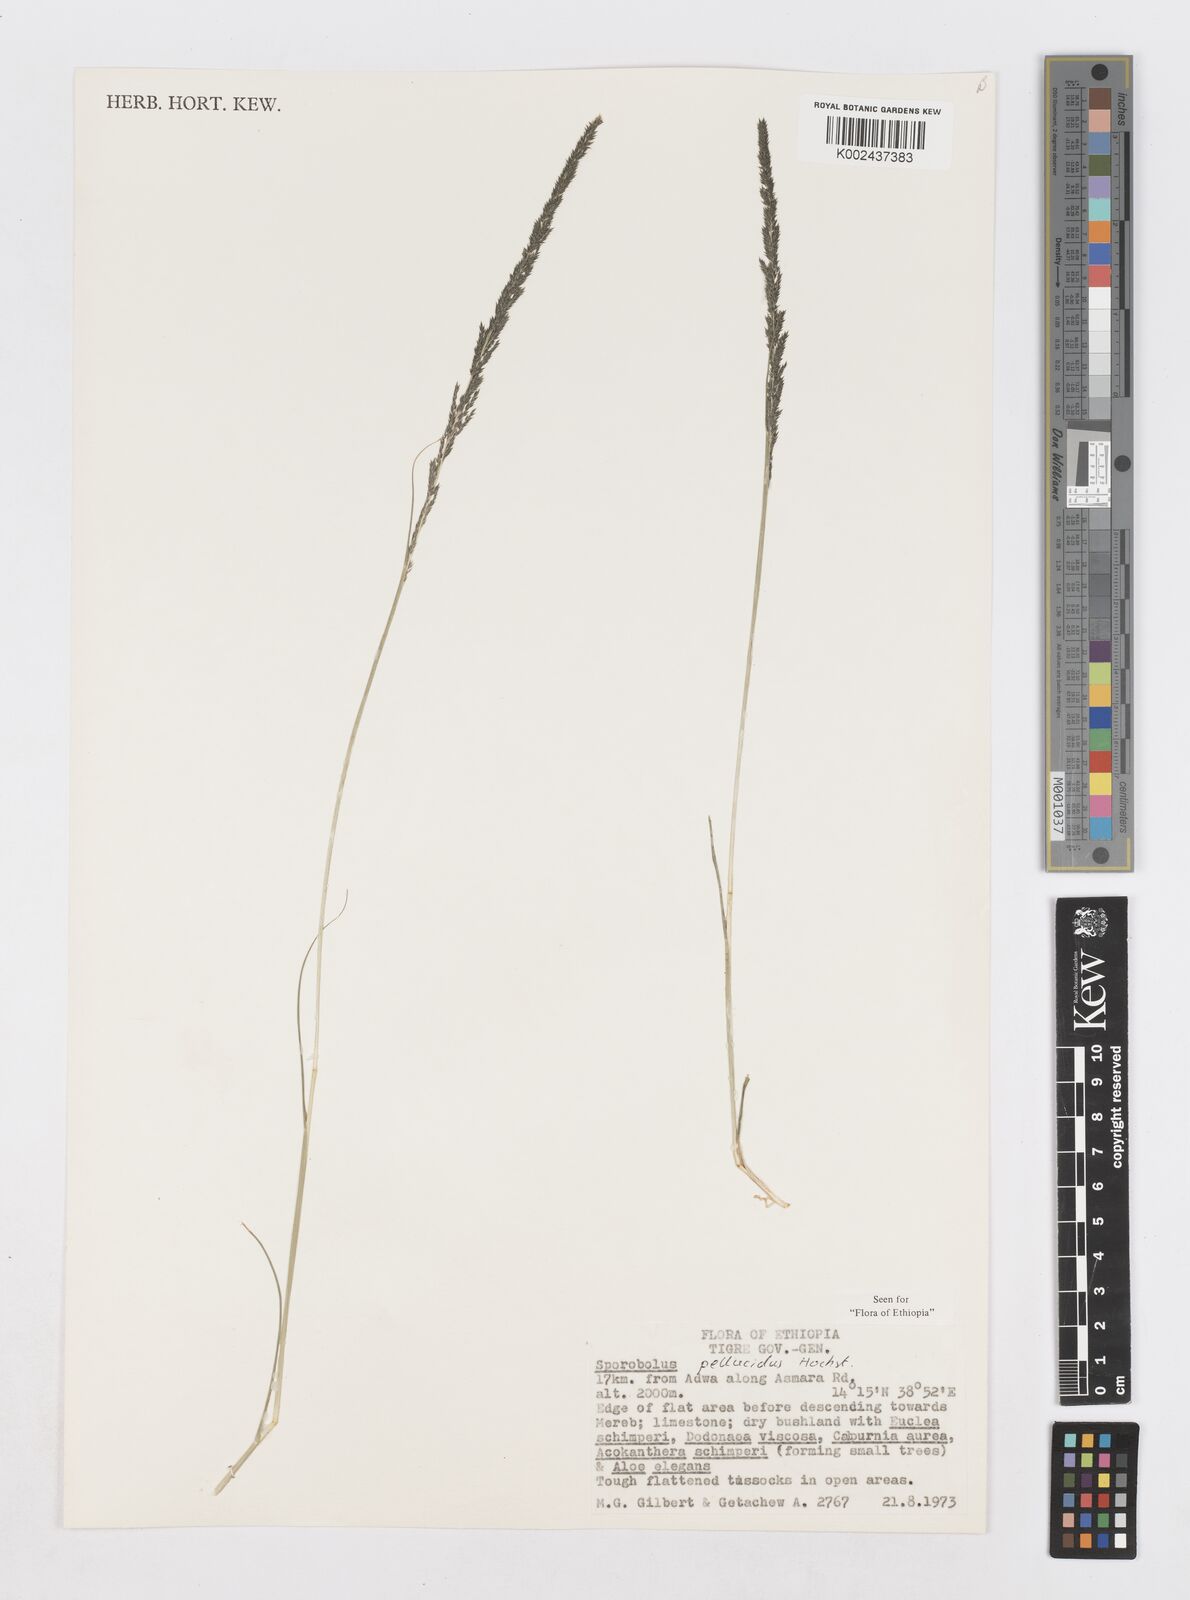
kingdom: Plantae
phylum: Tracheophyta
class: Liliopsida
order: Poales
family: Poaceae
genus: Sporobolus
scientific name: Sporobolus pellucidus
